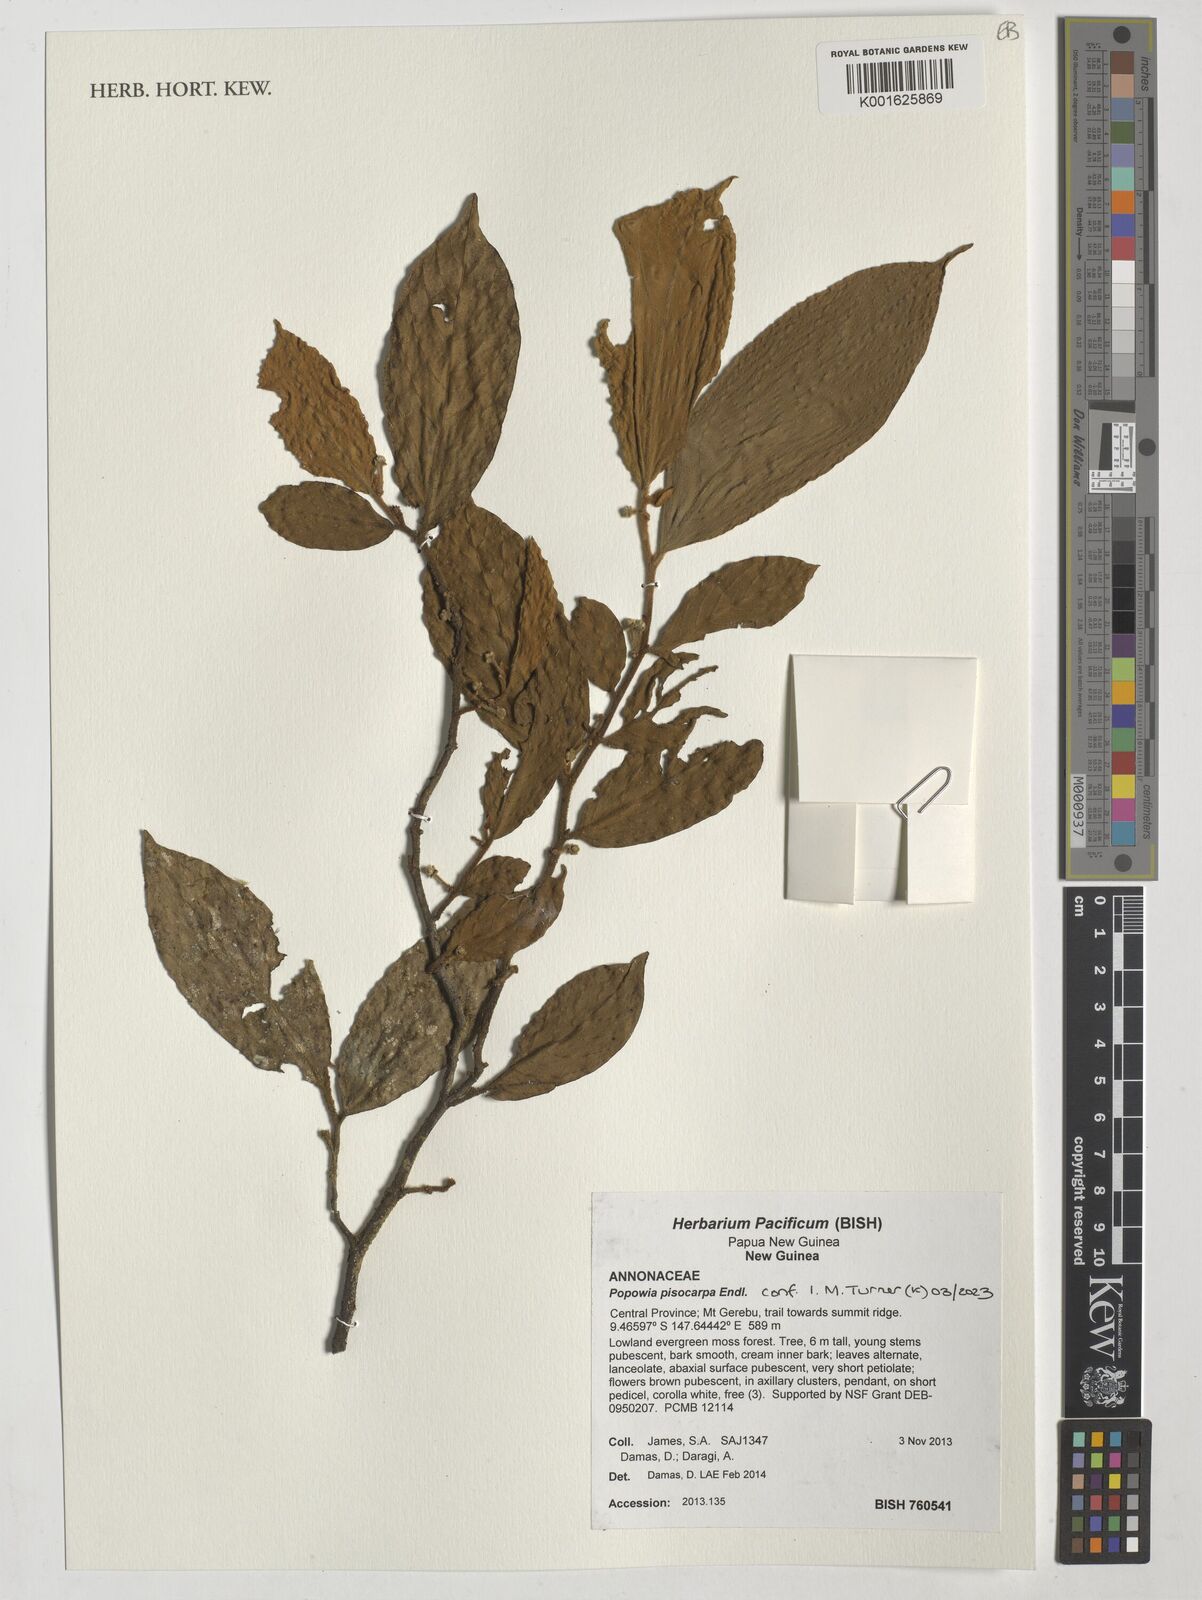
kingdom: Plantae
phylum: Tracheophyta
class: Magnoliopsida
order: Magnoliales
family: Annonaceae
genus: Popowia
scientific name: Popowia pisocarpa
